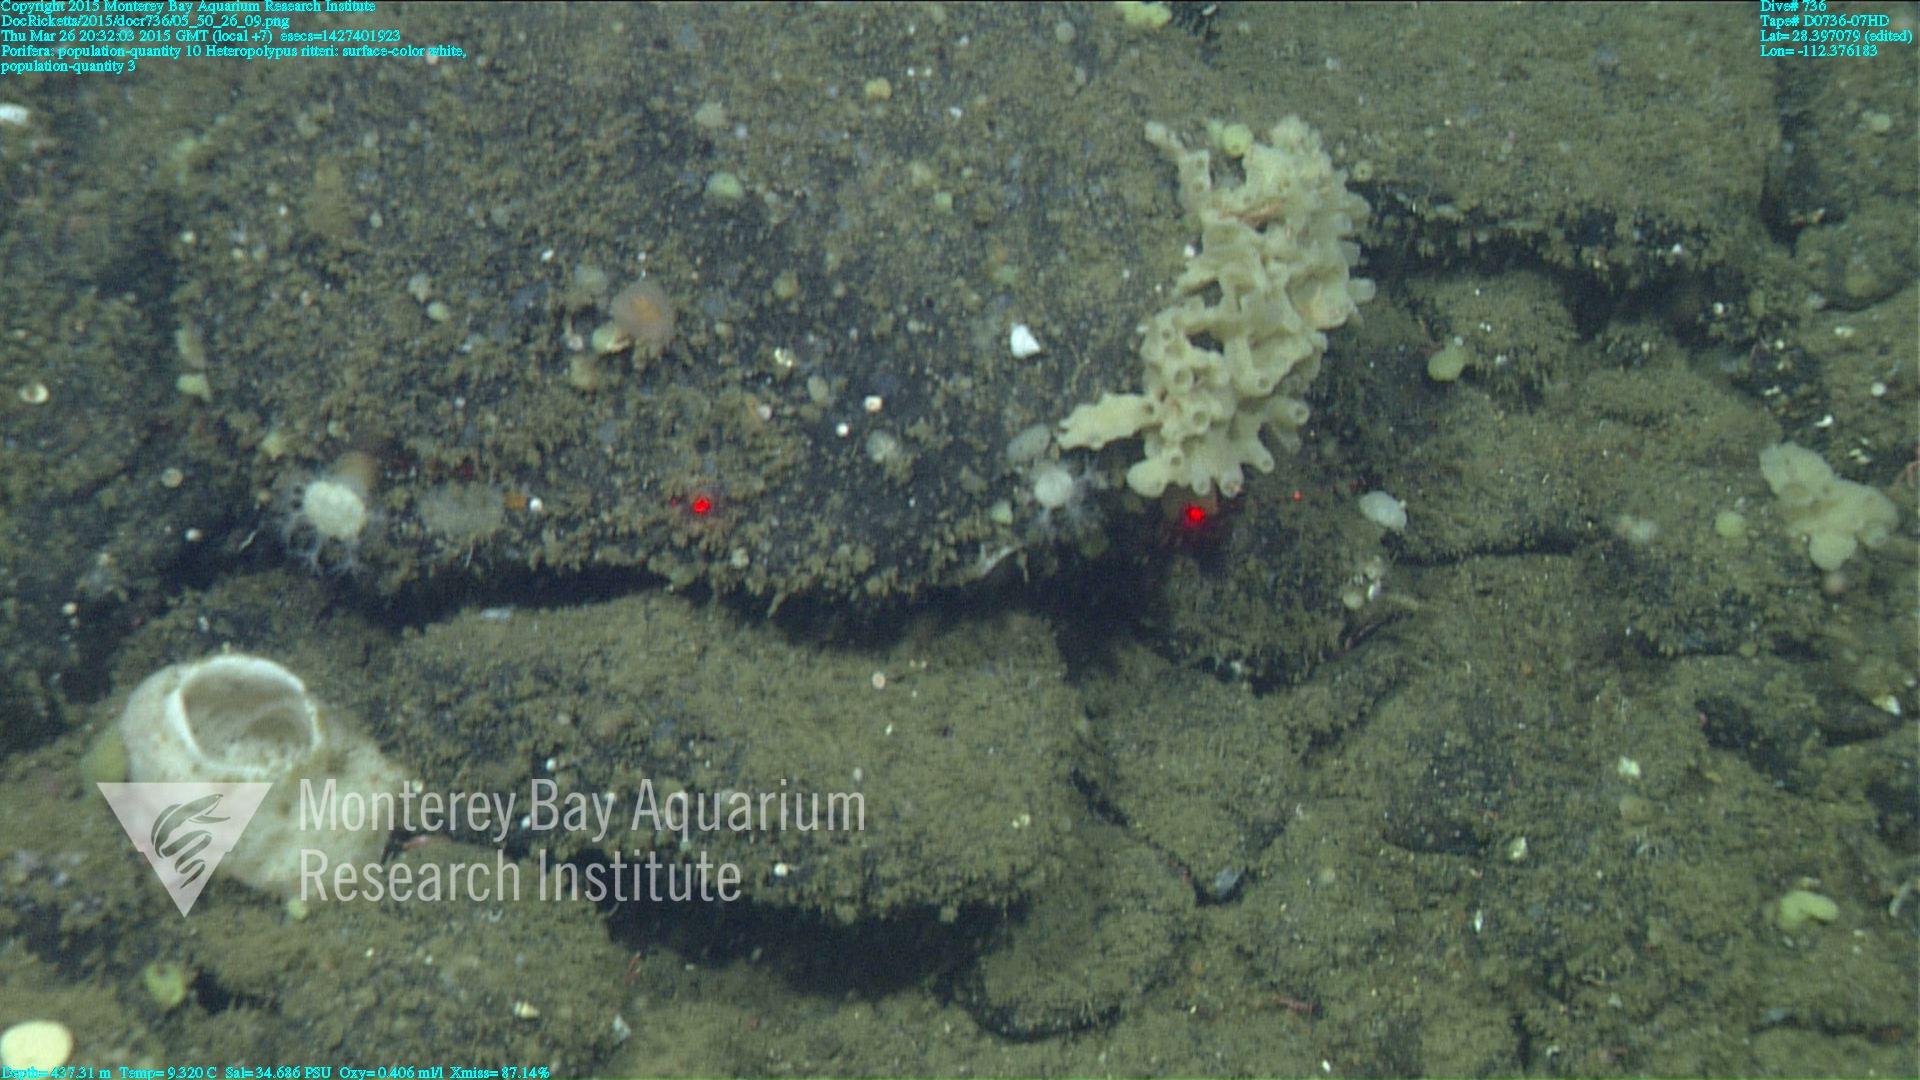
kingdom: Animalia
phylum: Cnidaria
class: Anthozoa
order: Scleralcyonacea
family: Coralliidae
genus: Heteropolypus
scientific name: Heteropolypus ritteri
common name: Ritter's soft coral
